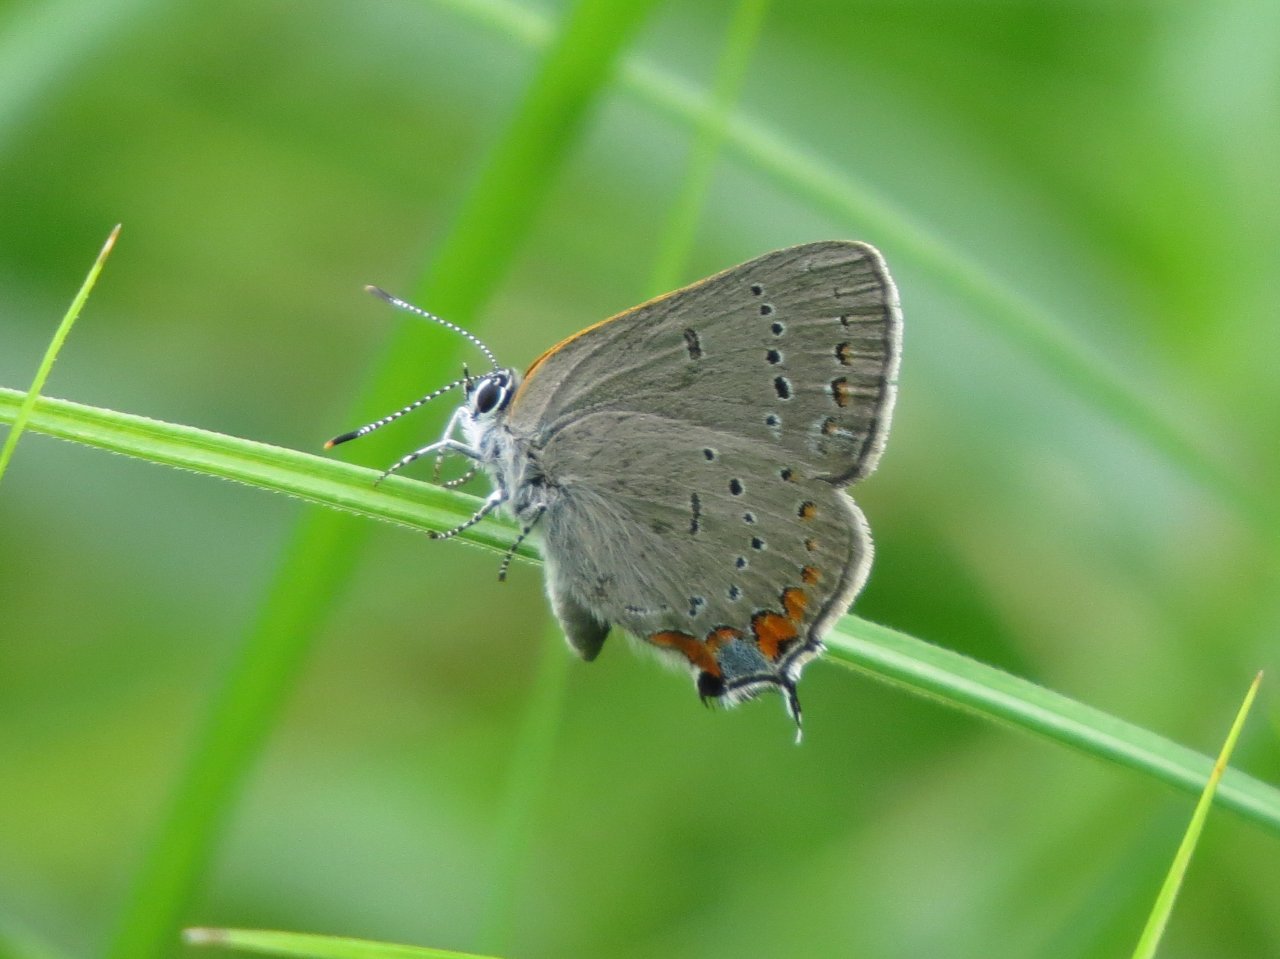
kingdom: Animalia
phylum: Arthropoda
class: Insecta
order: Lepidoptera
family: Lycaenidae
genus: Strymon
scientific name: Strymon acadica
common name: Acadian Hairstreak
